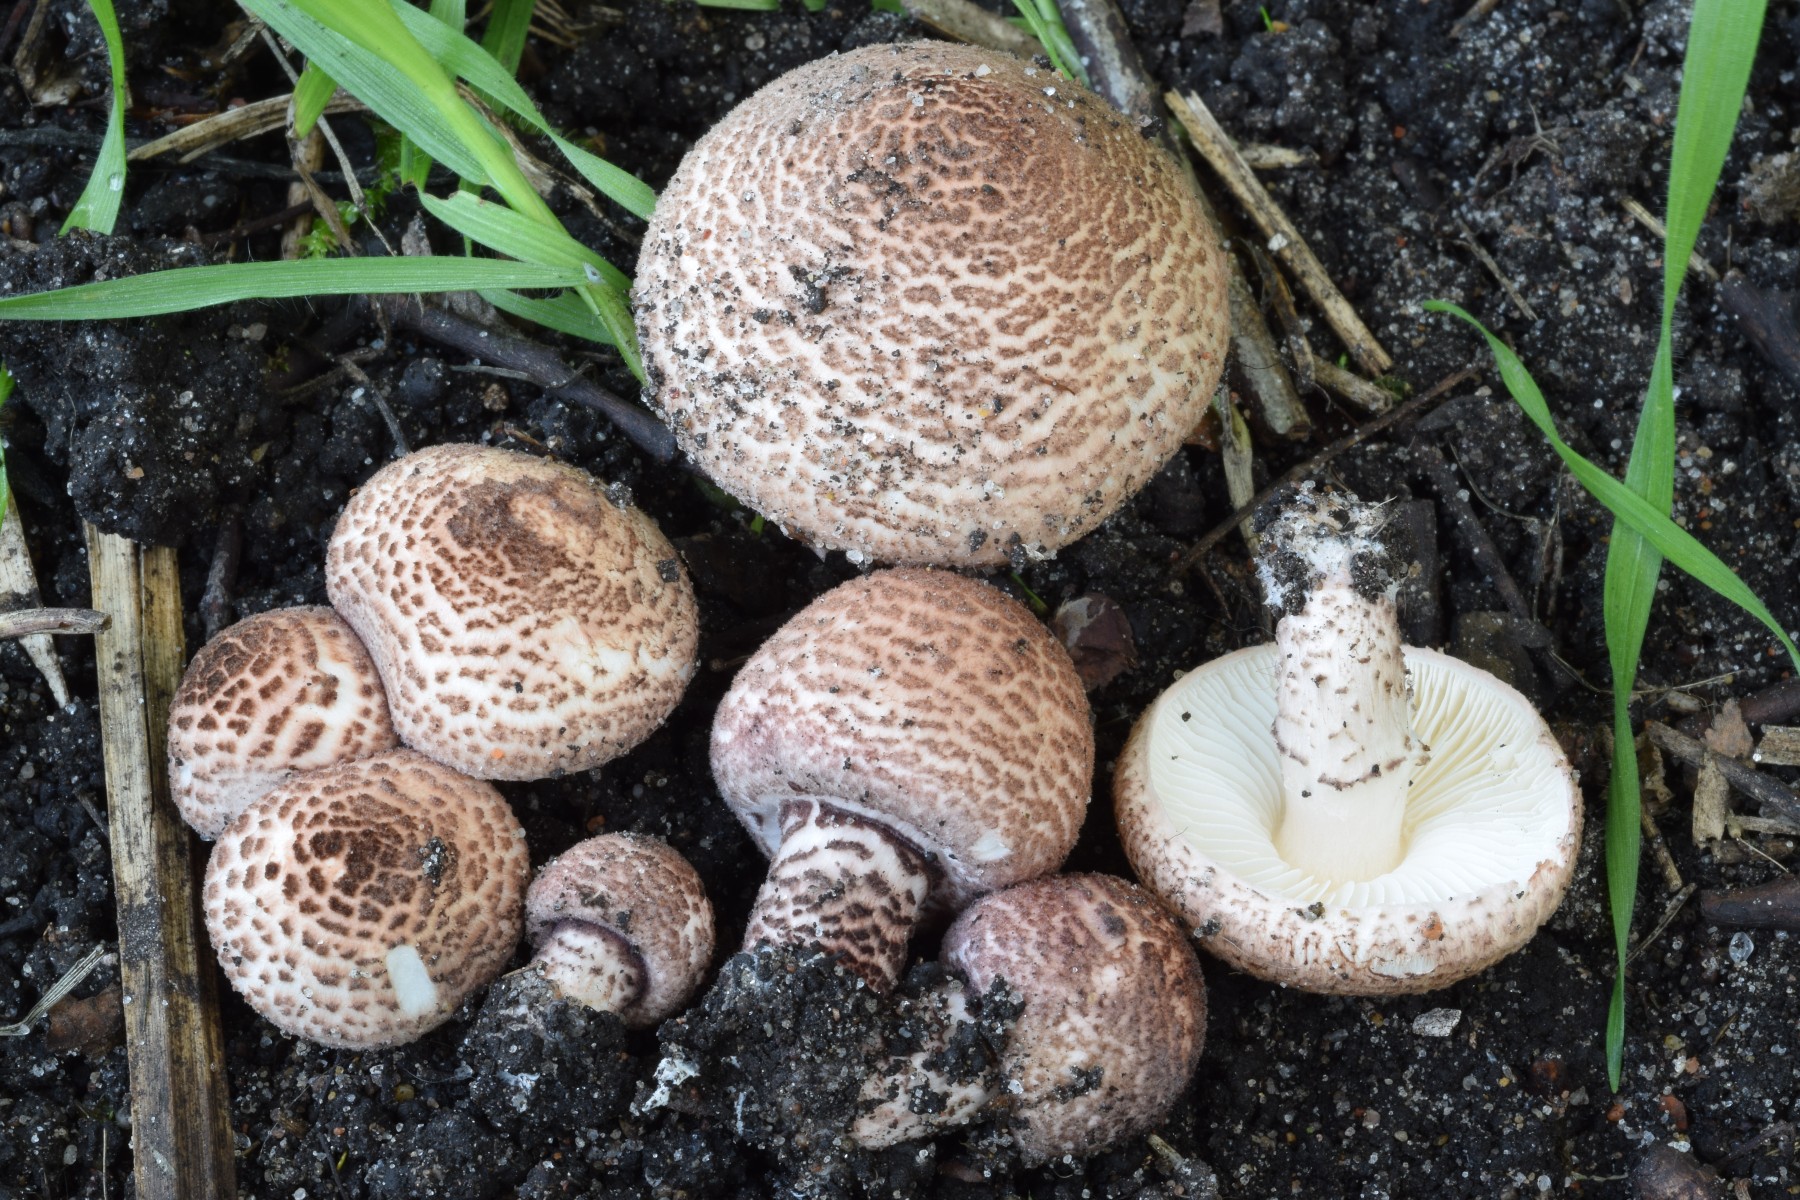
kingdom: Fungi
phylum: Basidiomycota
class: Agaricomycetes
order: Agaricales
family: Agaricaceae
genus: Lepiota
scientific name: Lepiota brunneoincarnata
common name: brunrød parasolhat
